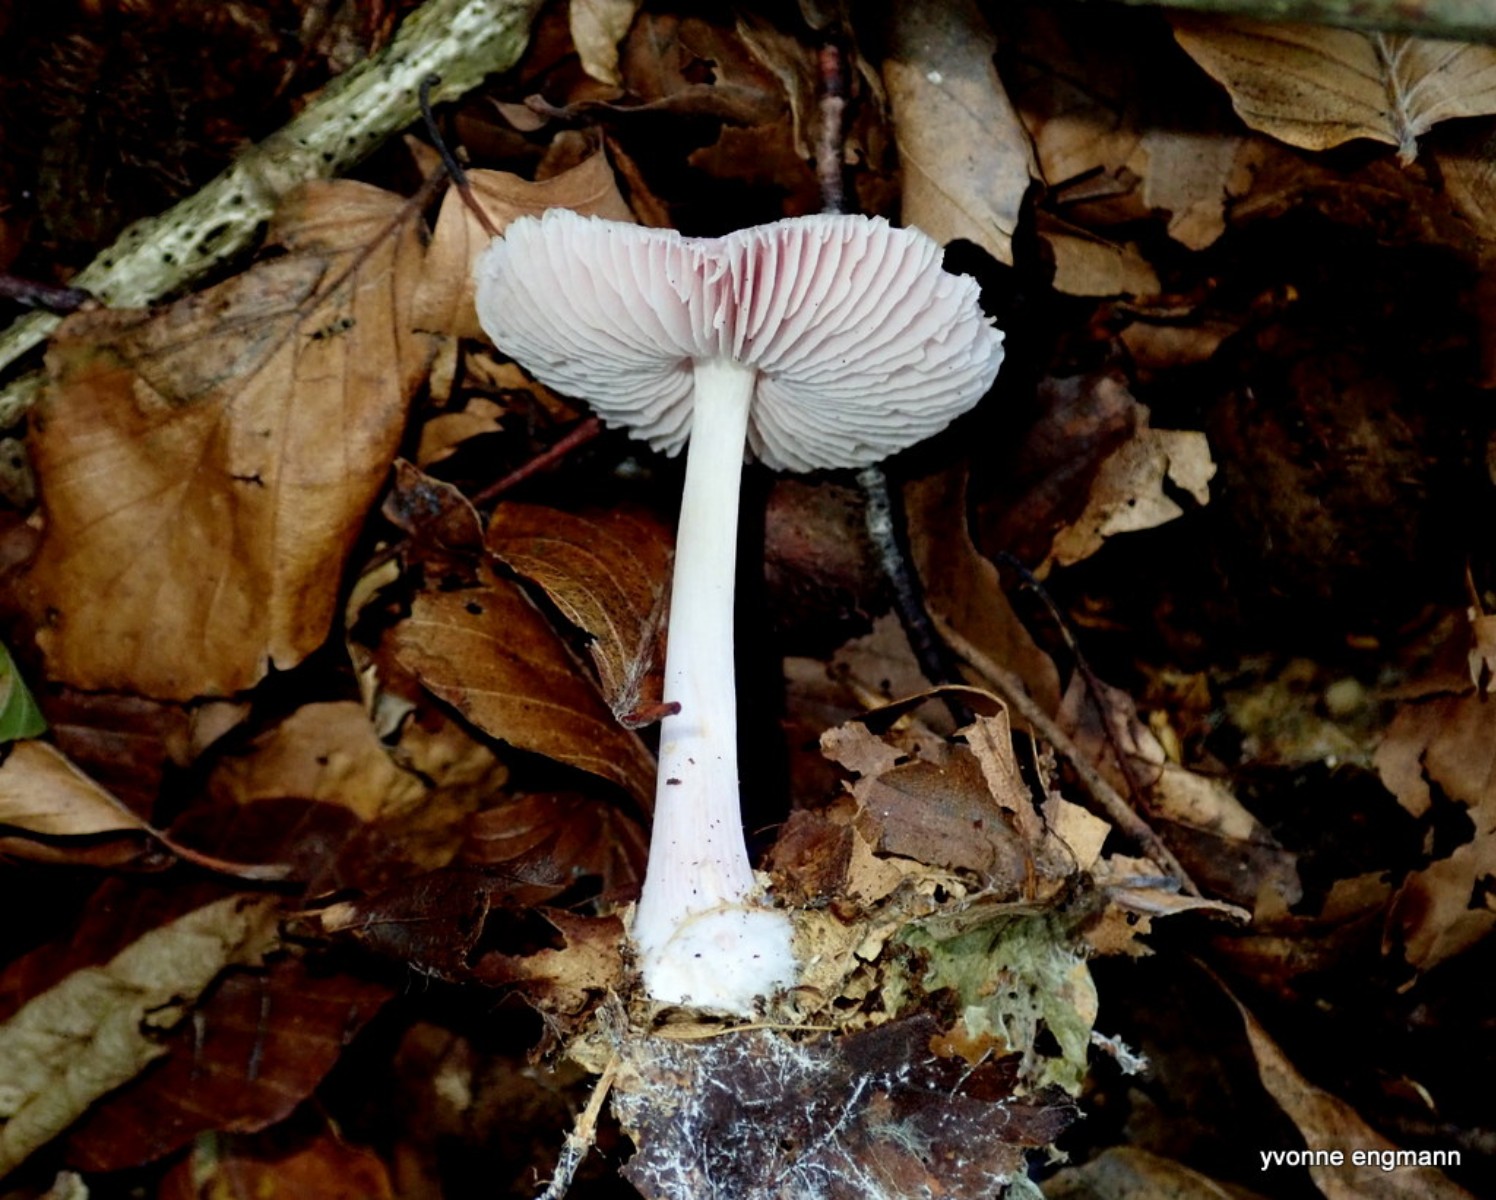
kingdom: Fungi
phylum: Basidiomycota
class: Agaricomycetes
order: Agaricales
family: Mycenaceae
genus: Mycena
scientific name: Mycena rosea
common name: rosa huesvamp
